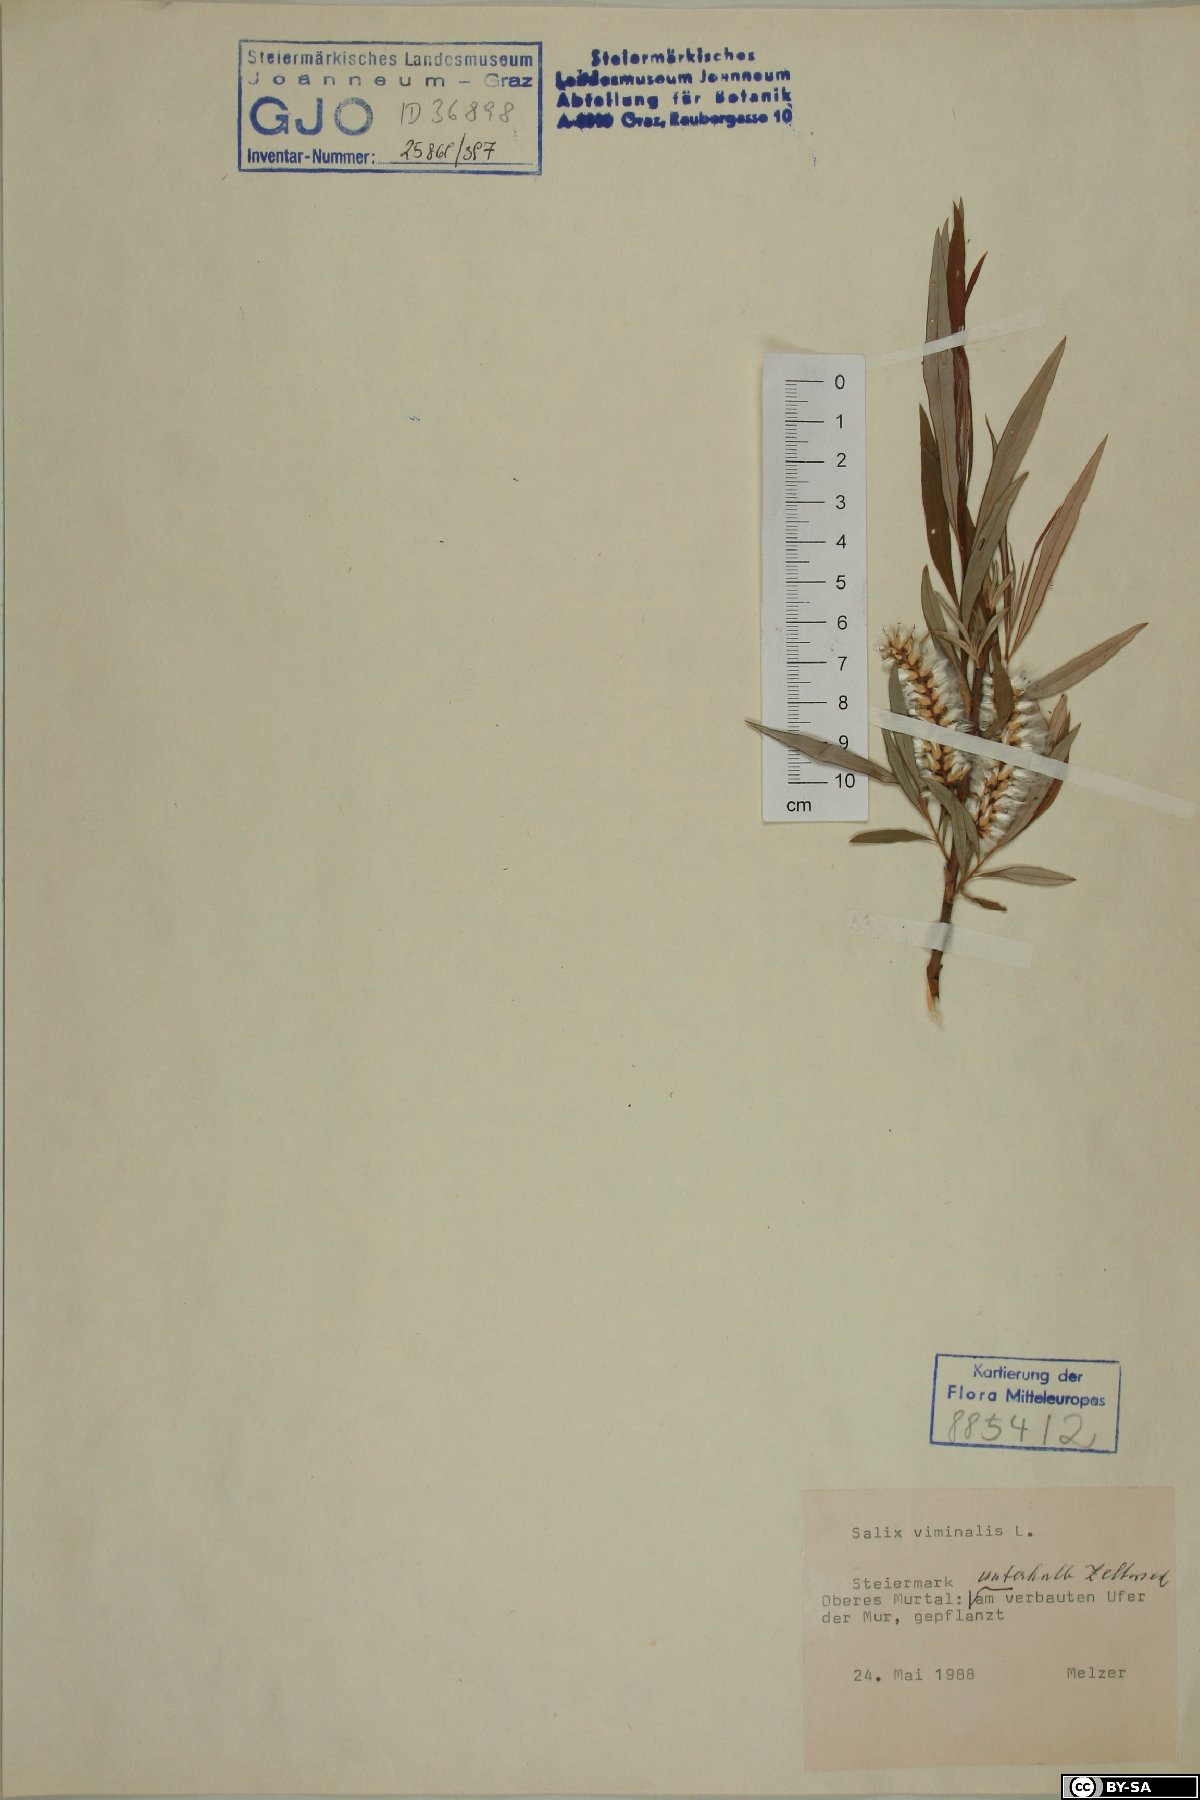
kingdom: Plantae
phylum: Tracheophyta
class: Magnoliopsida
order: Malpighiales
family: Salicaceae
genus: Salix
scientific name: Salix viminalis
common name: Osier
